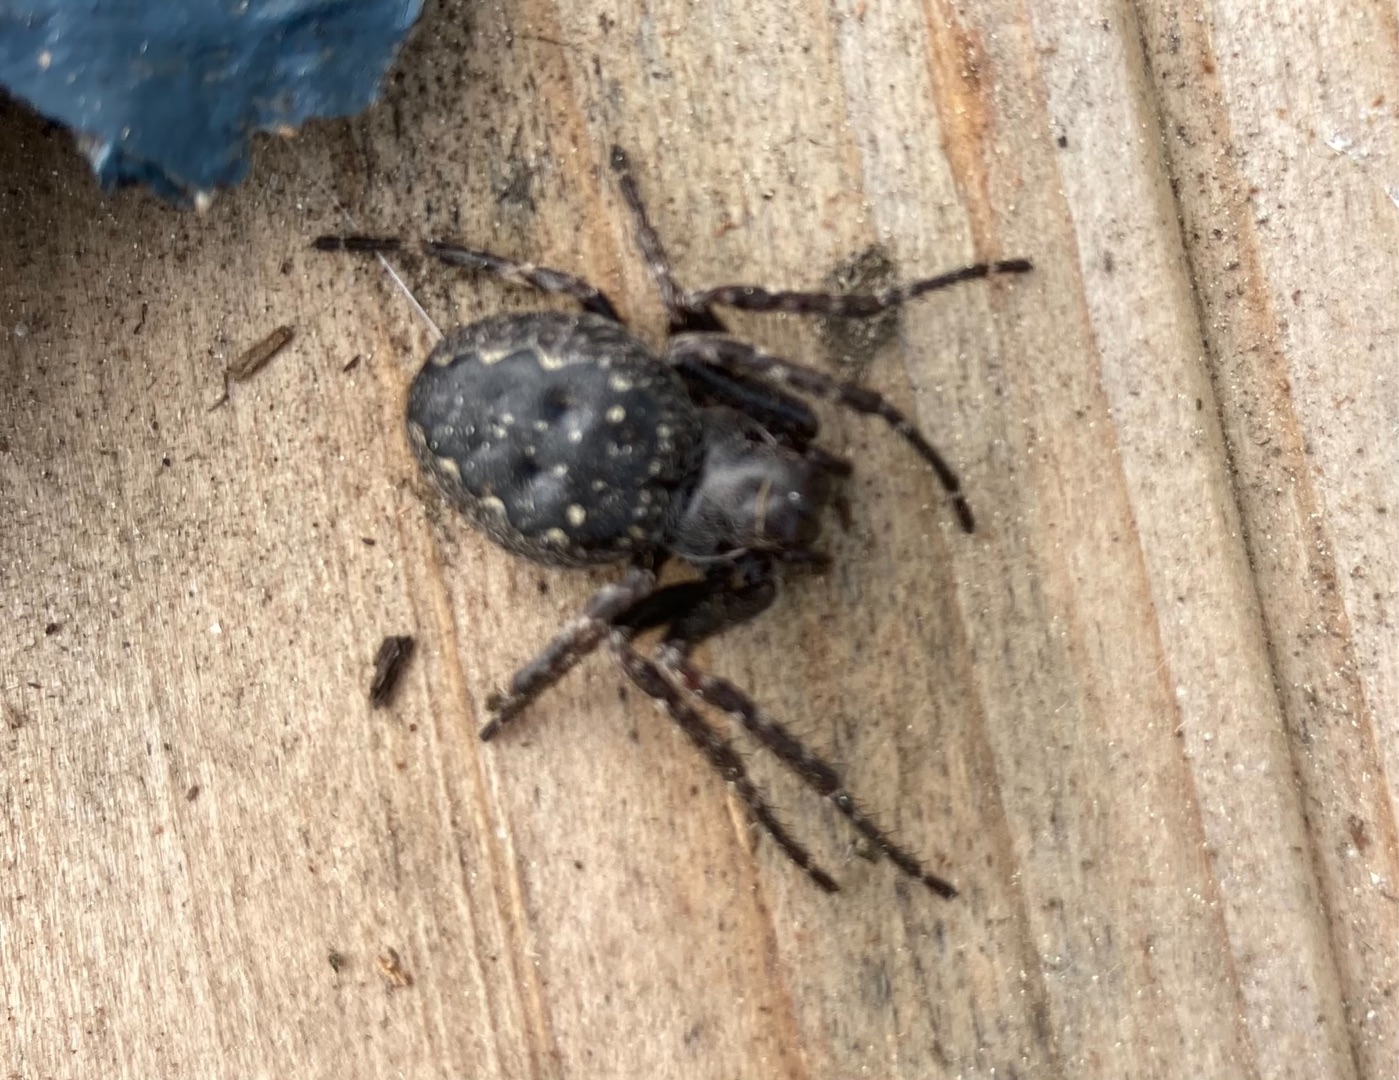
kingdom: Animalia
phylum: Arthropoda
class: Arachnida
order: Araneae
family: Araneidae
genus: Nuctenea
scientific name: Nuctenea umbratica
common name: Flad hjulspinder
